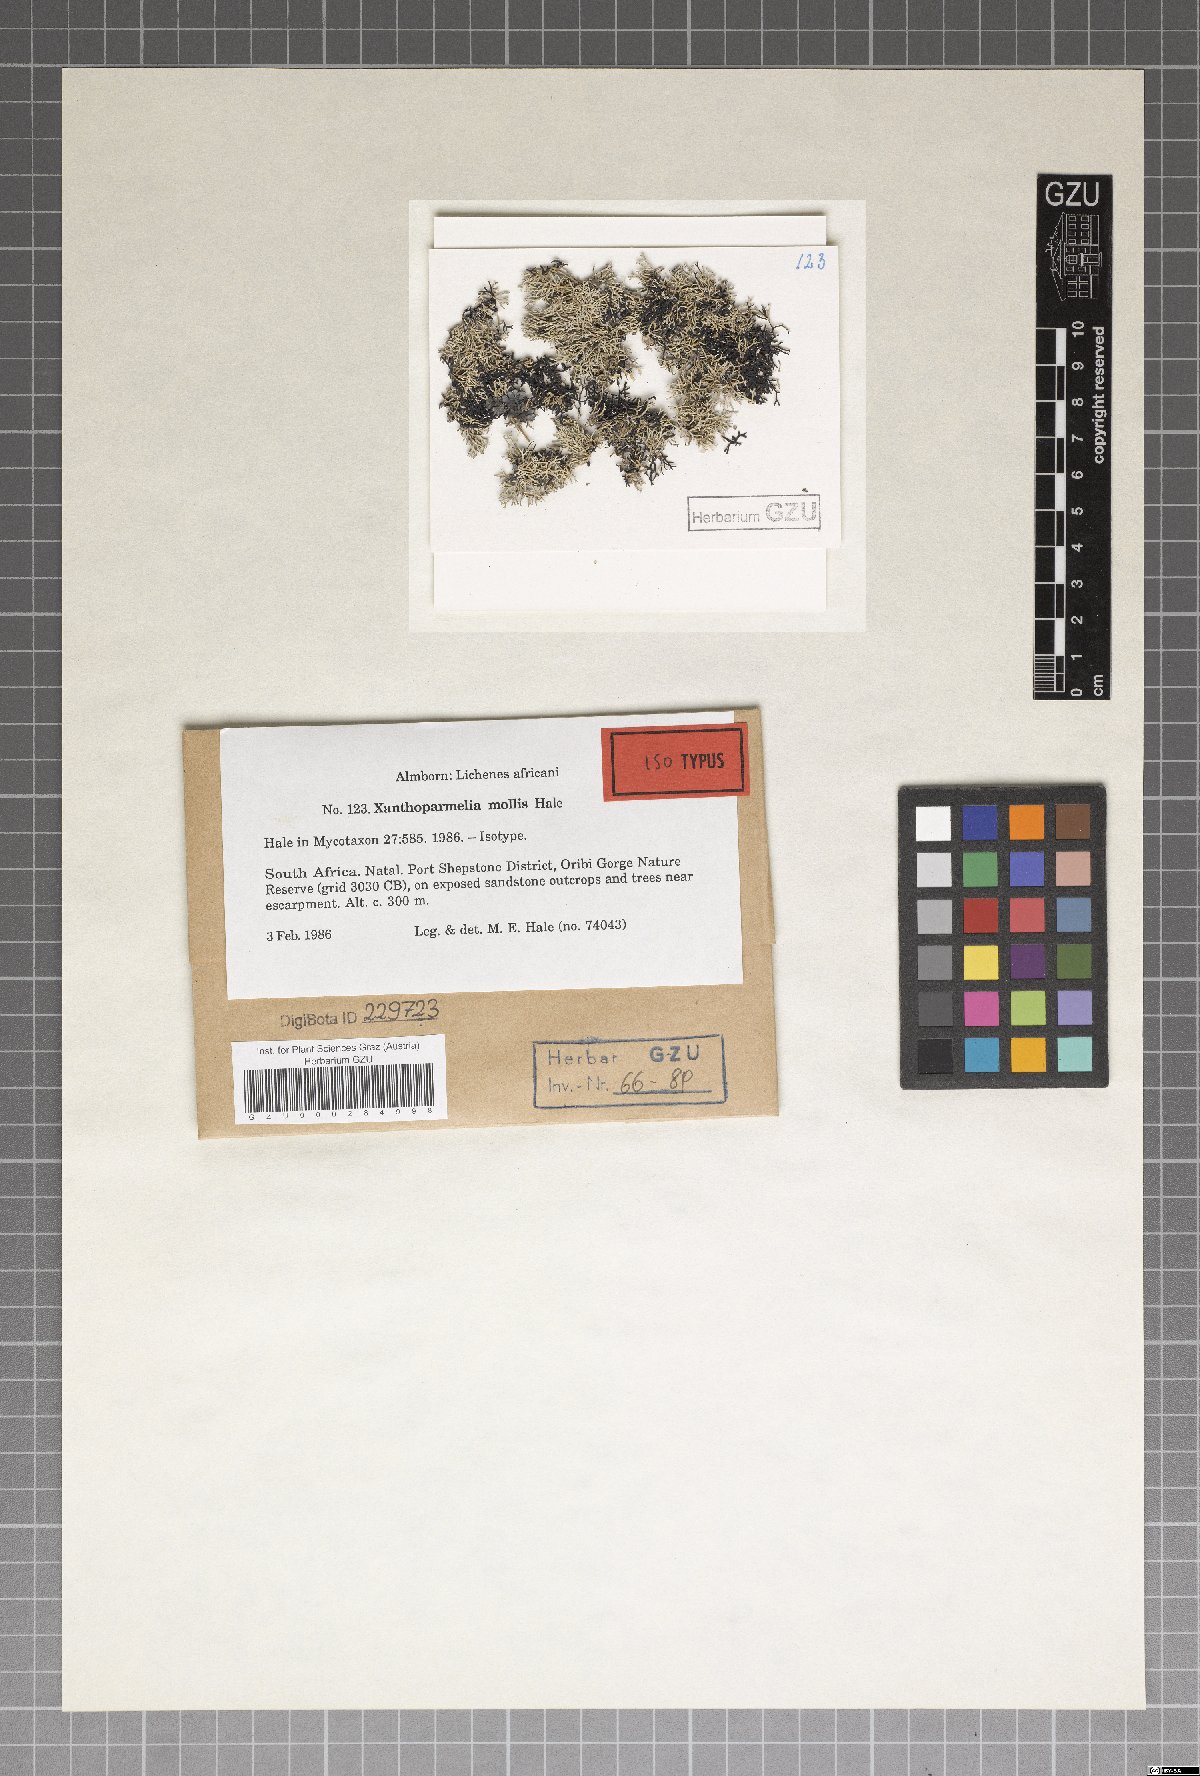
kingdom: Fungi
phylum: Ascomycota
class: Lecanoromycetes
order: Lecanorales
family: Parmeliaceae
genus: Xanthoparmelia
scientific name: Xanthoparmelia mollis
